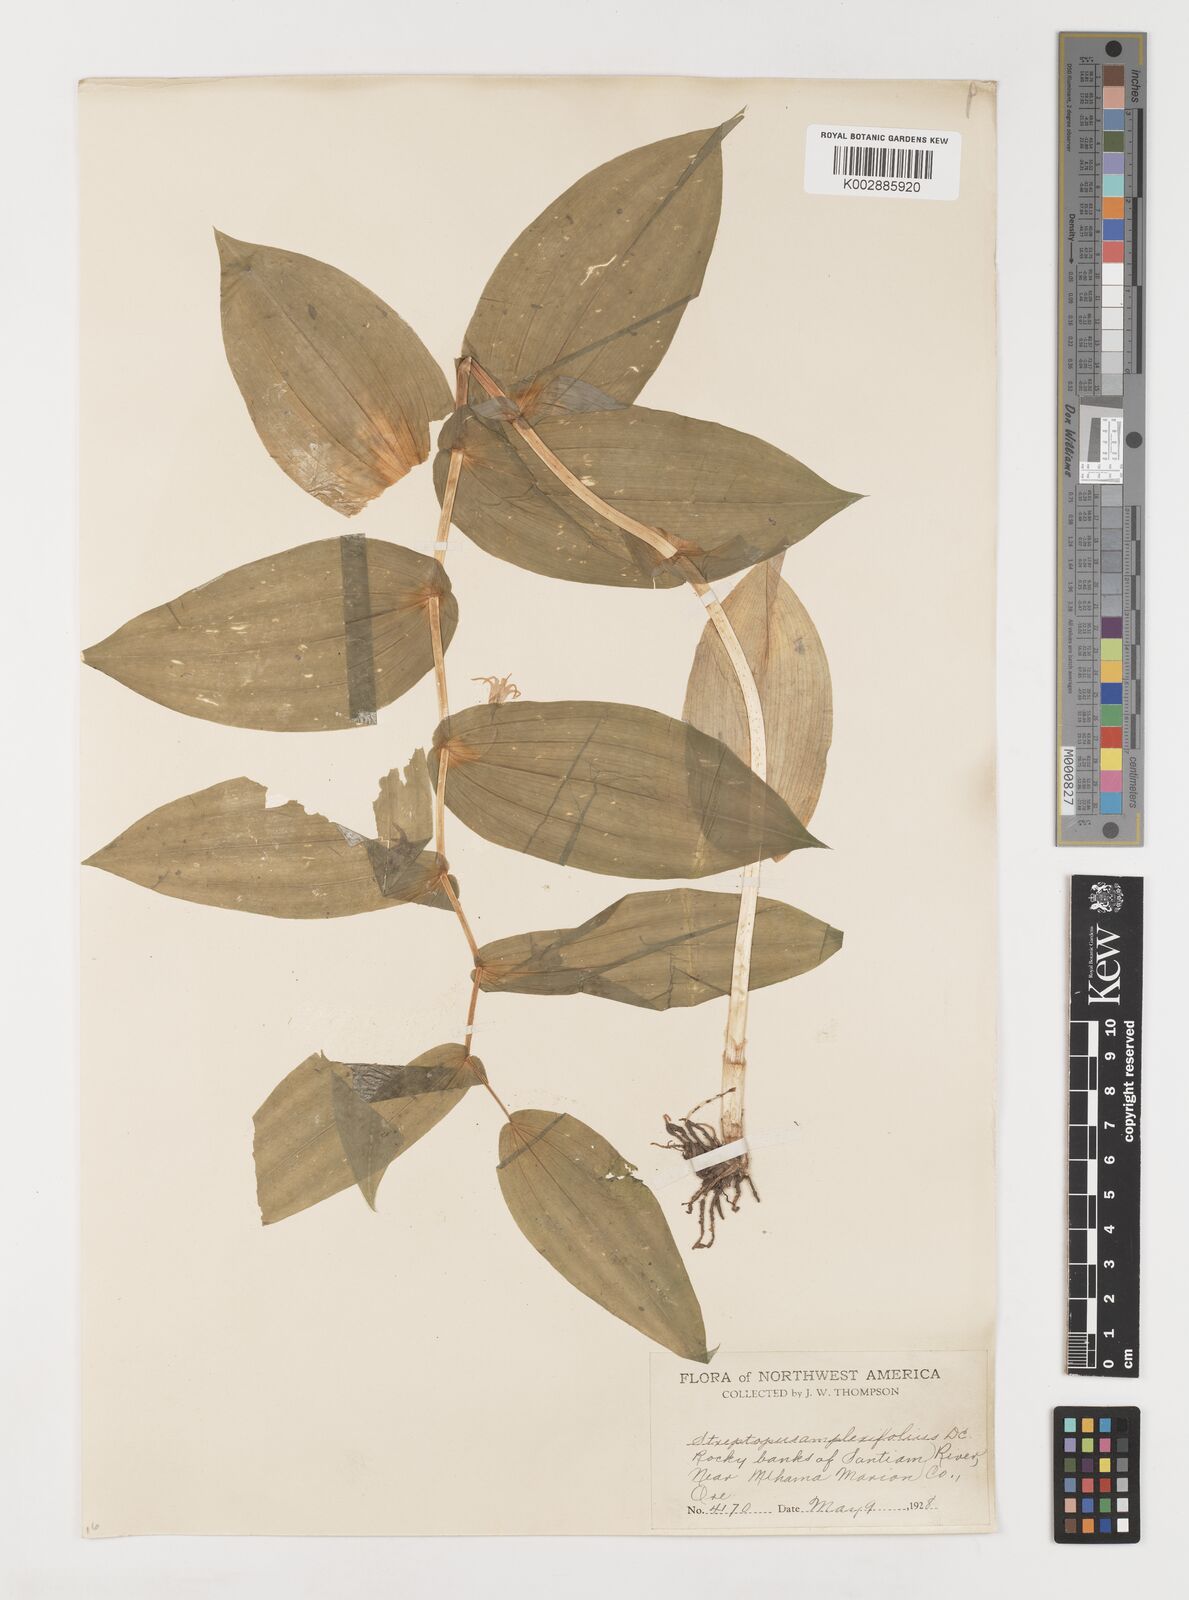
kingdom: Plantae
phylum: Tracheophyta
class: Liliopsida
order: Liliales
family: Liliaceae
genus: Streptopus
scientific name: Streptopus
